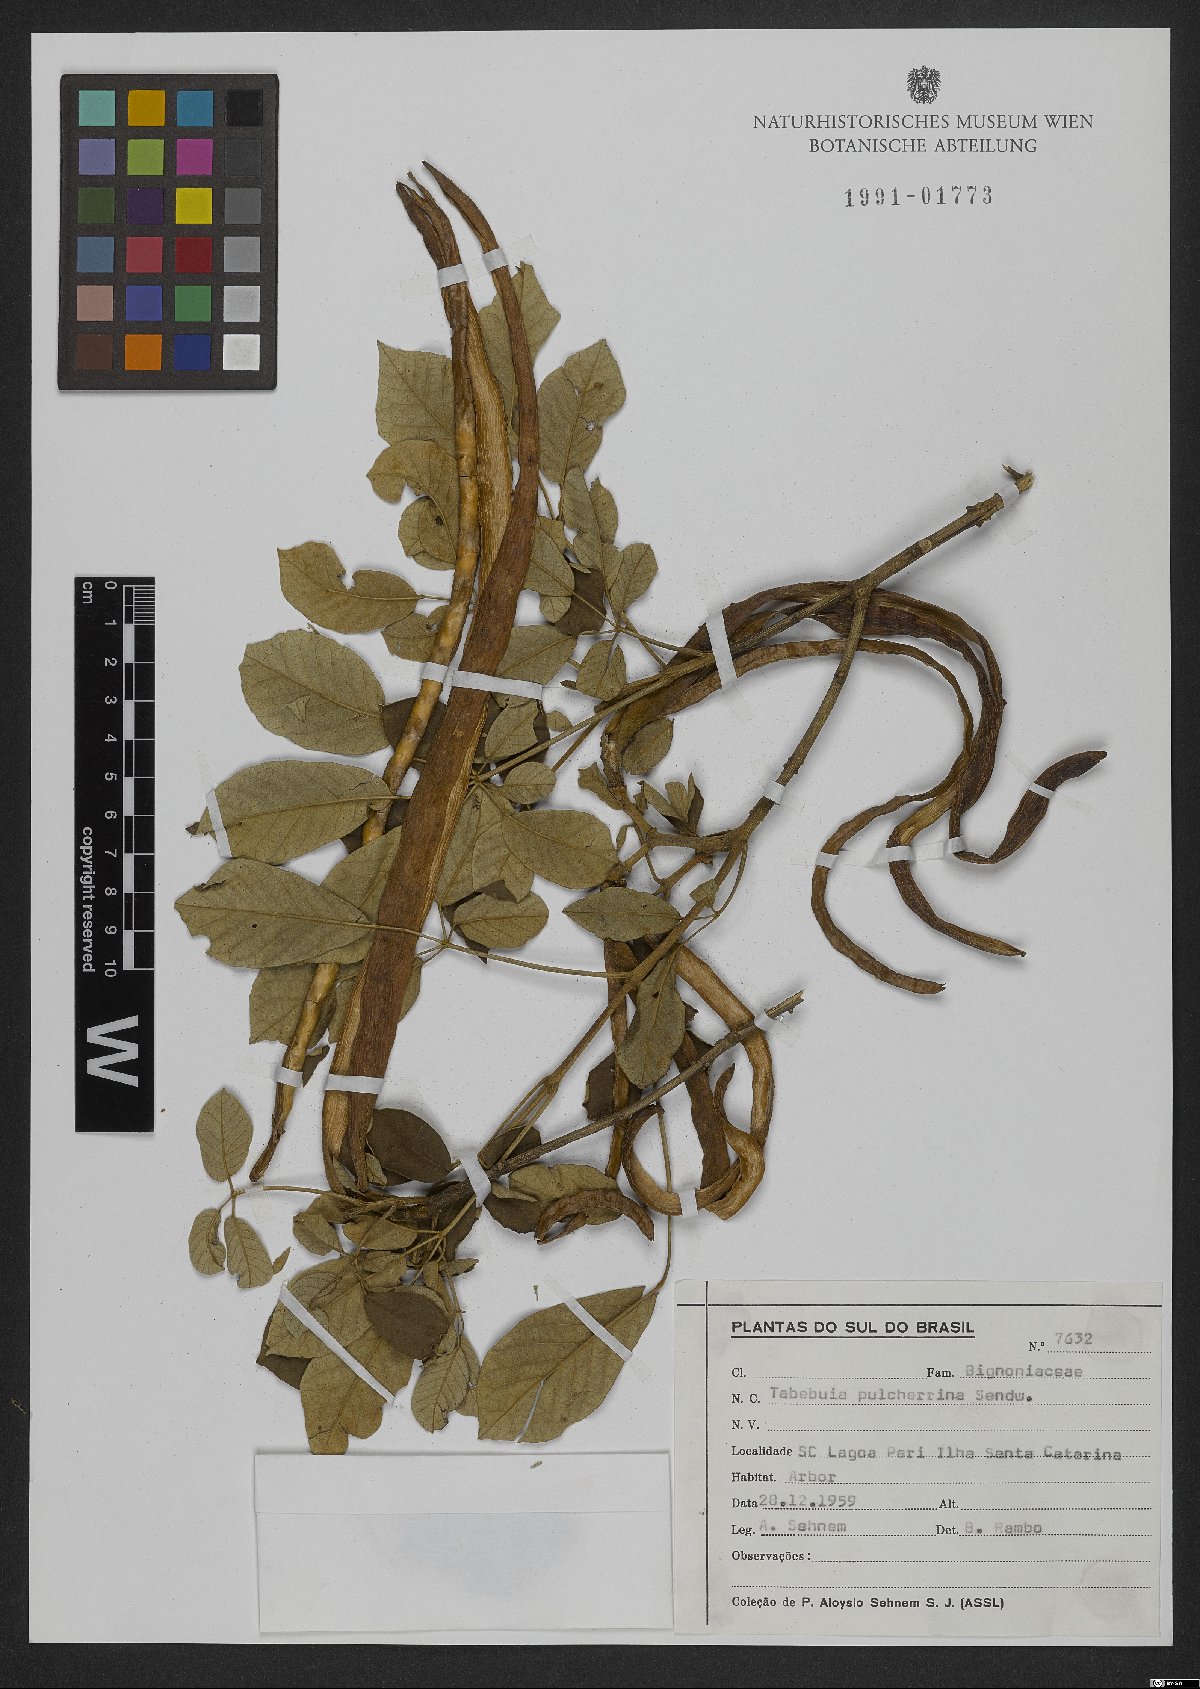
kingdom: Plantae
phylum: Tracheophyta
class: Magnoliopsida
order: Lamiales
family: Bignoniaceae
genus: Handroanthus
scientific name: Handroanthus pulcherrimus
